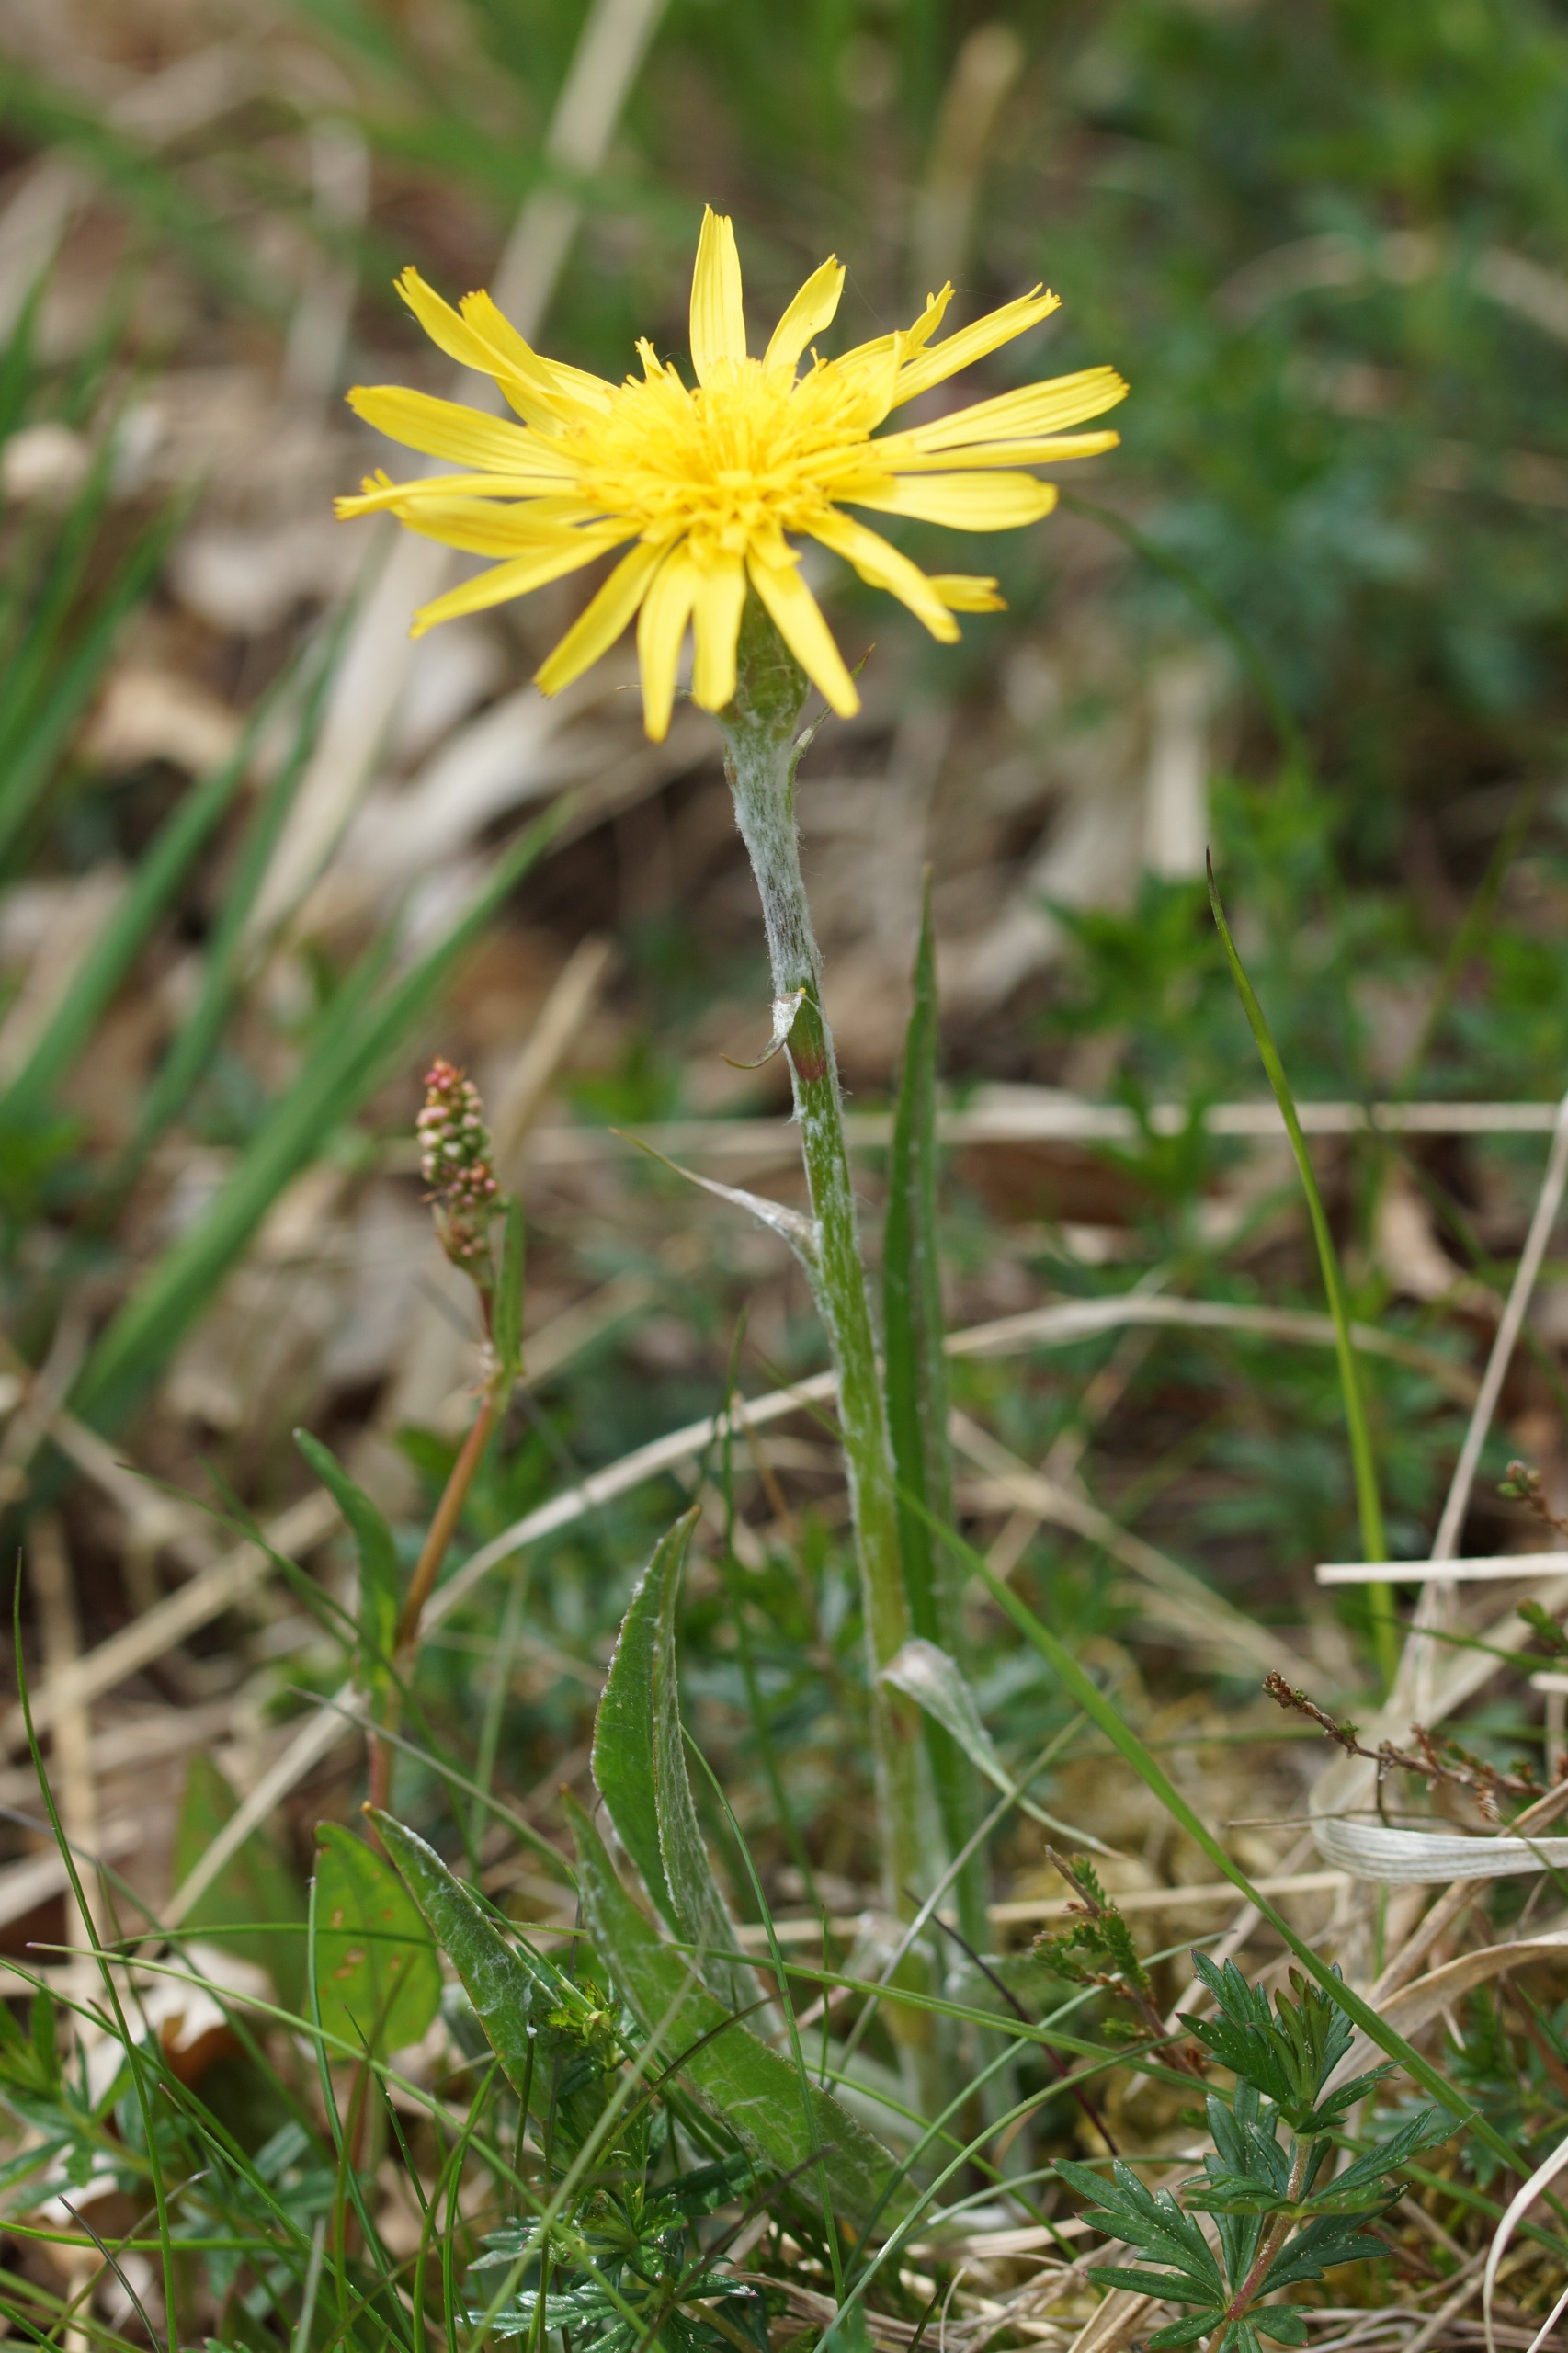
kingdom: Plantae
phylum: Tracheophyta
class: Magnoliopsida
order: Asterales
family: Asteraceae
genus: Scorzonera
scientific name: Scorzonera humilis
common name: Lav skorsoner
